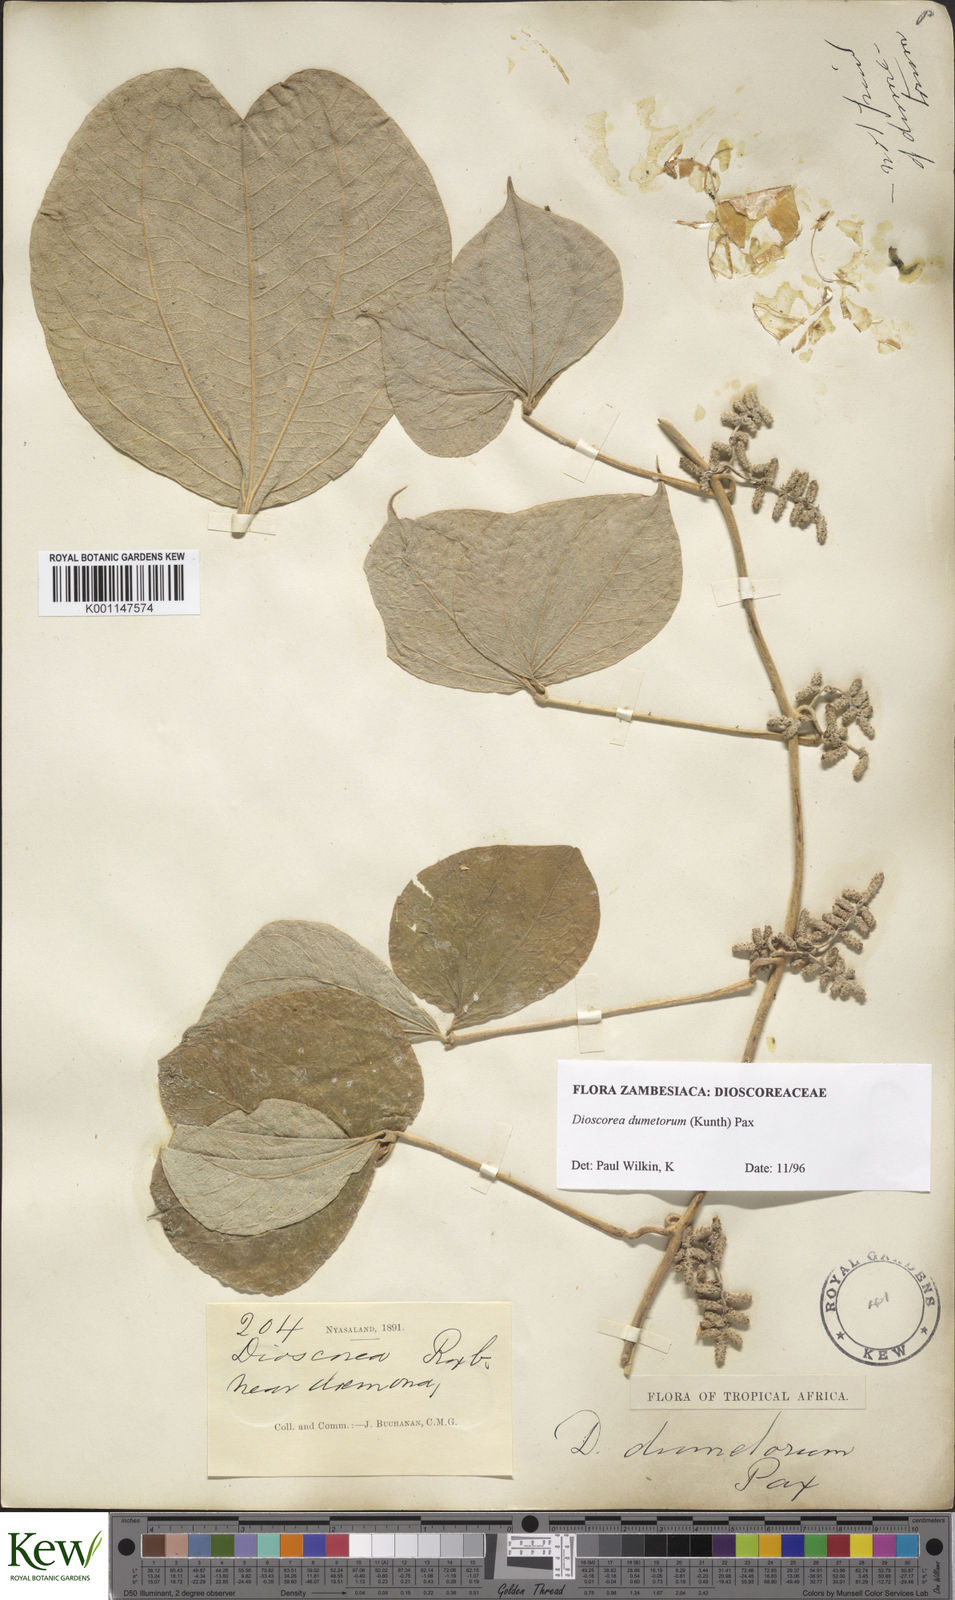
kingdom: Plantae
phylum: Tracheophyta
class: Liliopsida
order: Dioscoreales
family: Dioscoreaceae
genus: Dioscorea
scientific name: Dioscorea dumetorum
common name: African bitter yam
